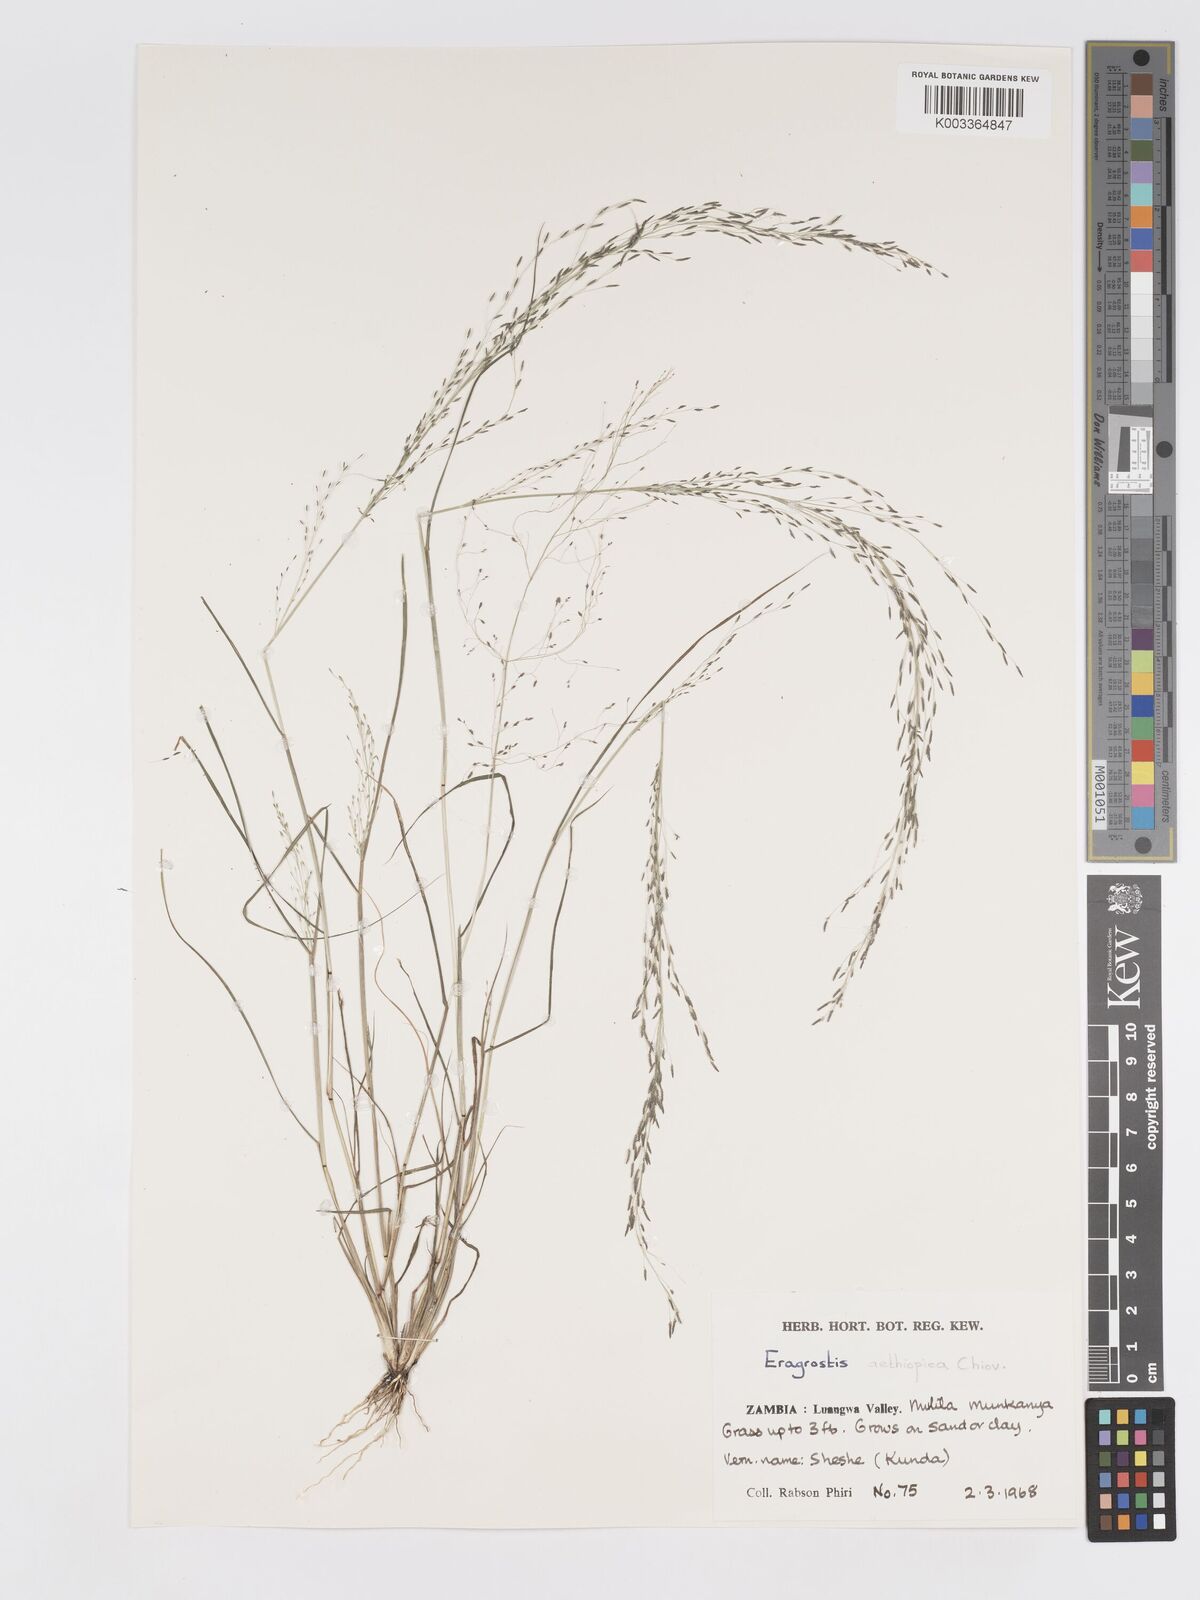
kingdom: Plantae
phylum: Tracheophyta
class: Liliopsida
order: Poales
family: Poaceae
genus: Eragrostis
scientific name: Eragrostis aethiopica
